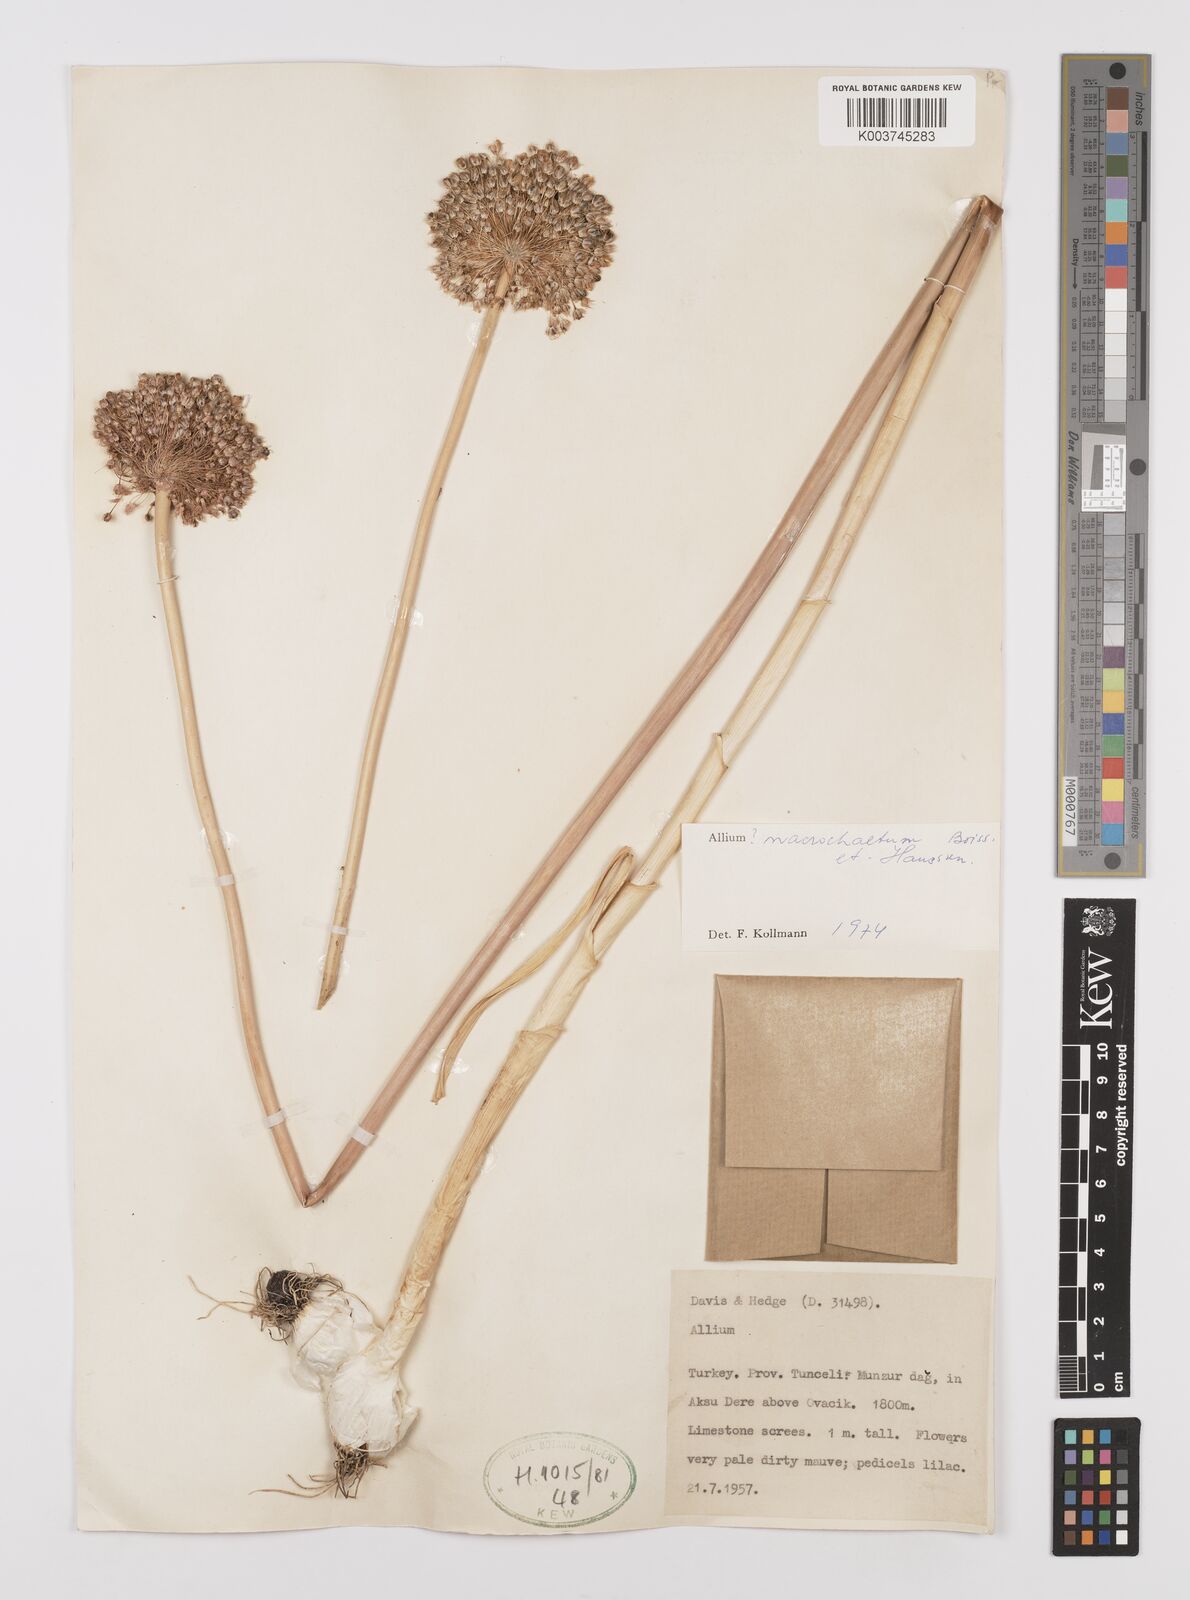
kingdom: Plantae
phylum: Tracheophyta
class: Liliopsida
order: Asparagales
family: Amaryllidaceae
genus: Allium
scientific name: Allium tuncelianum
